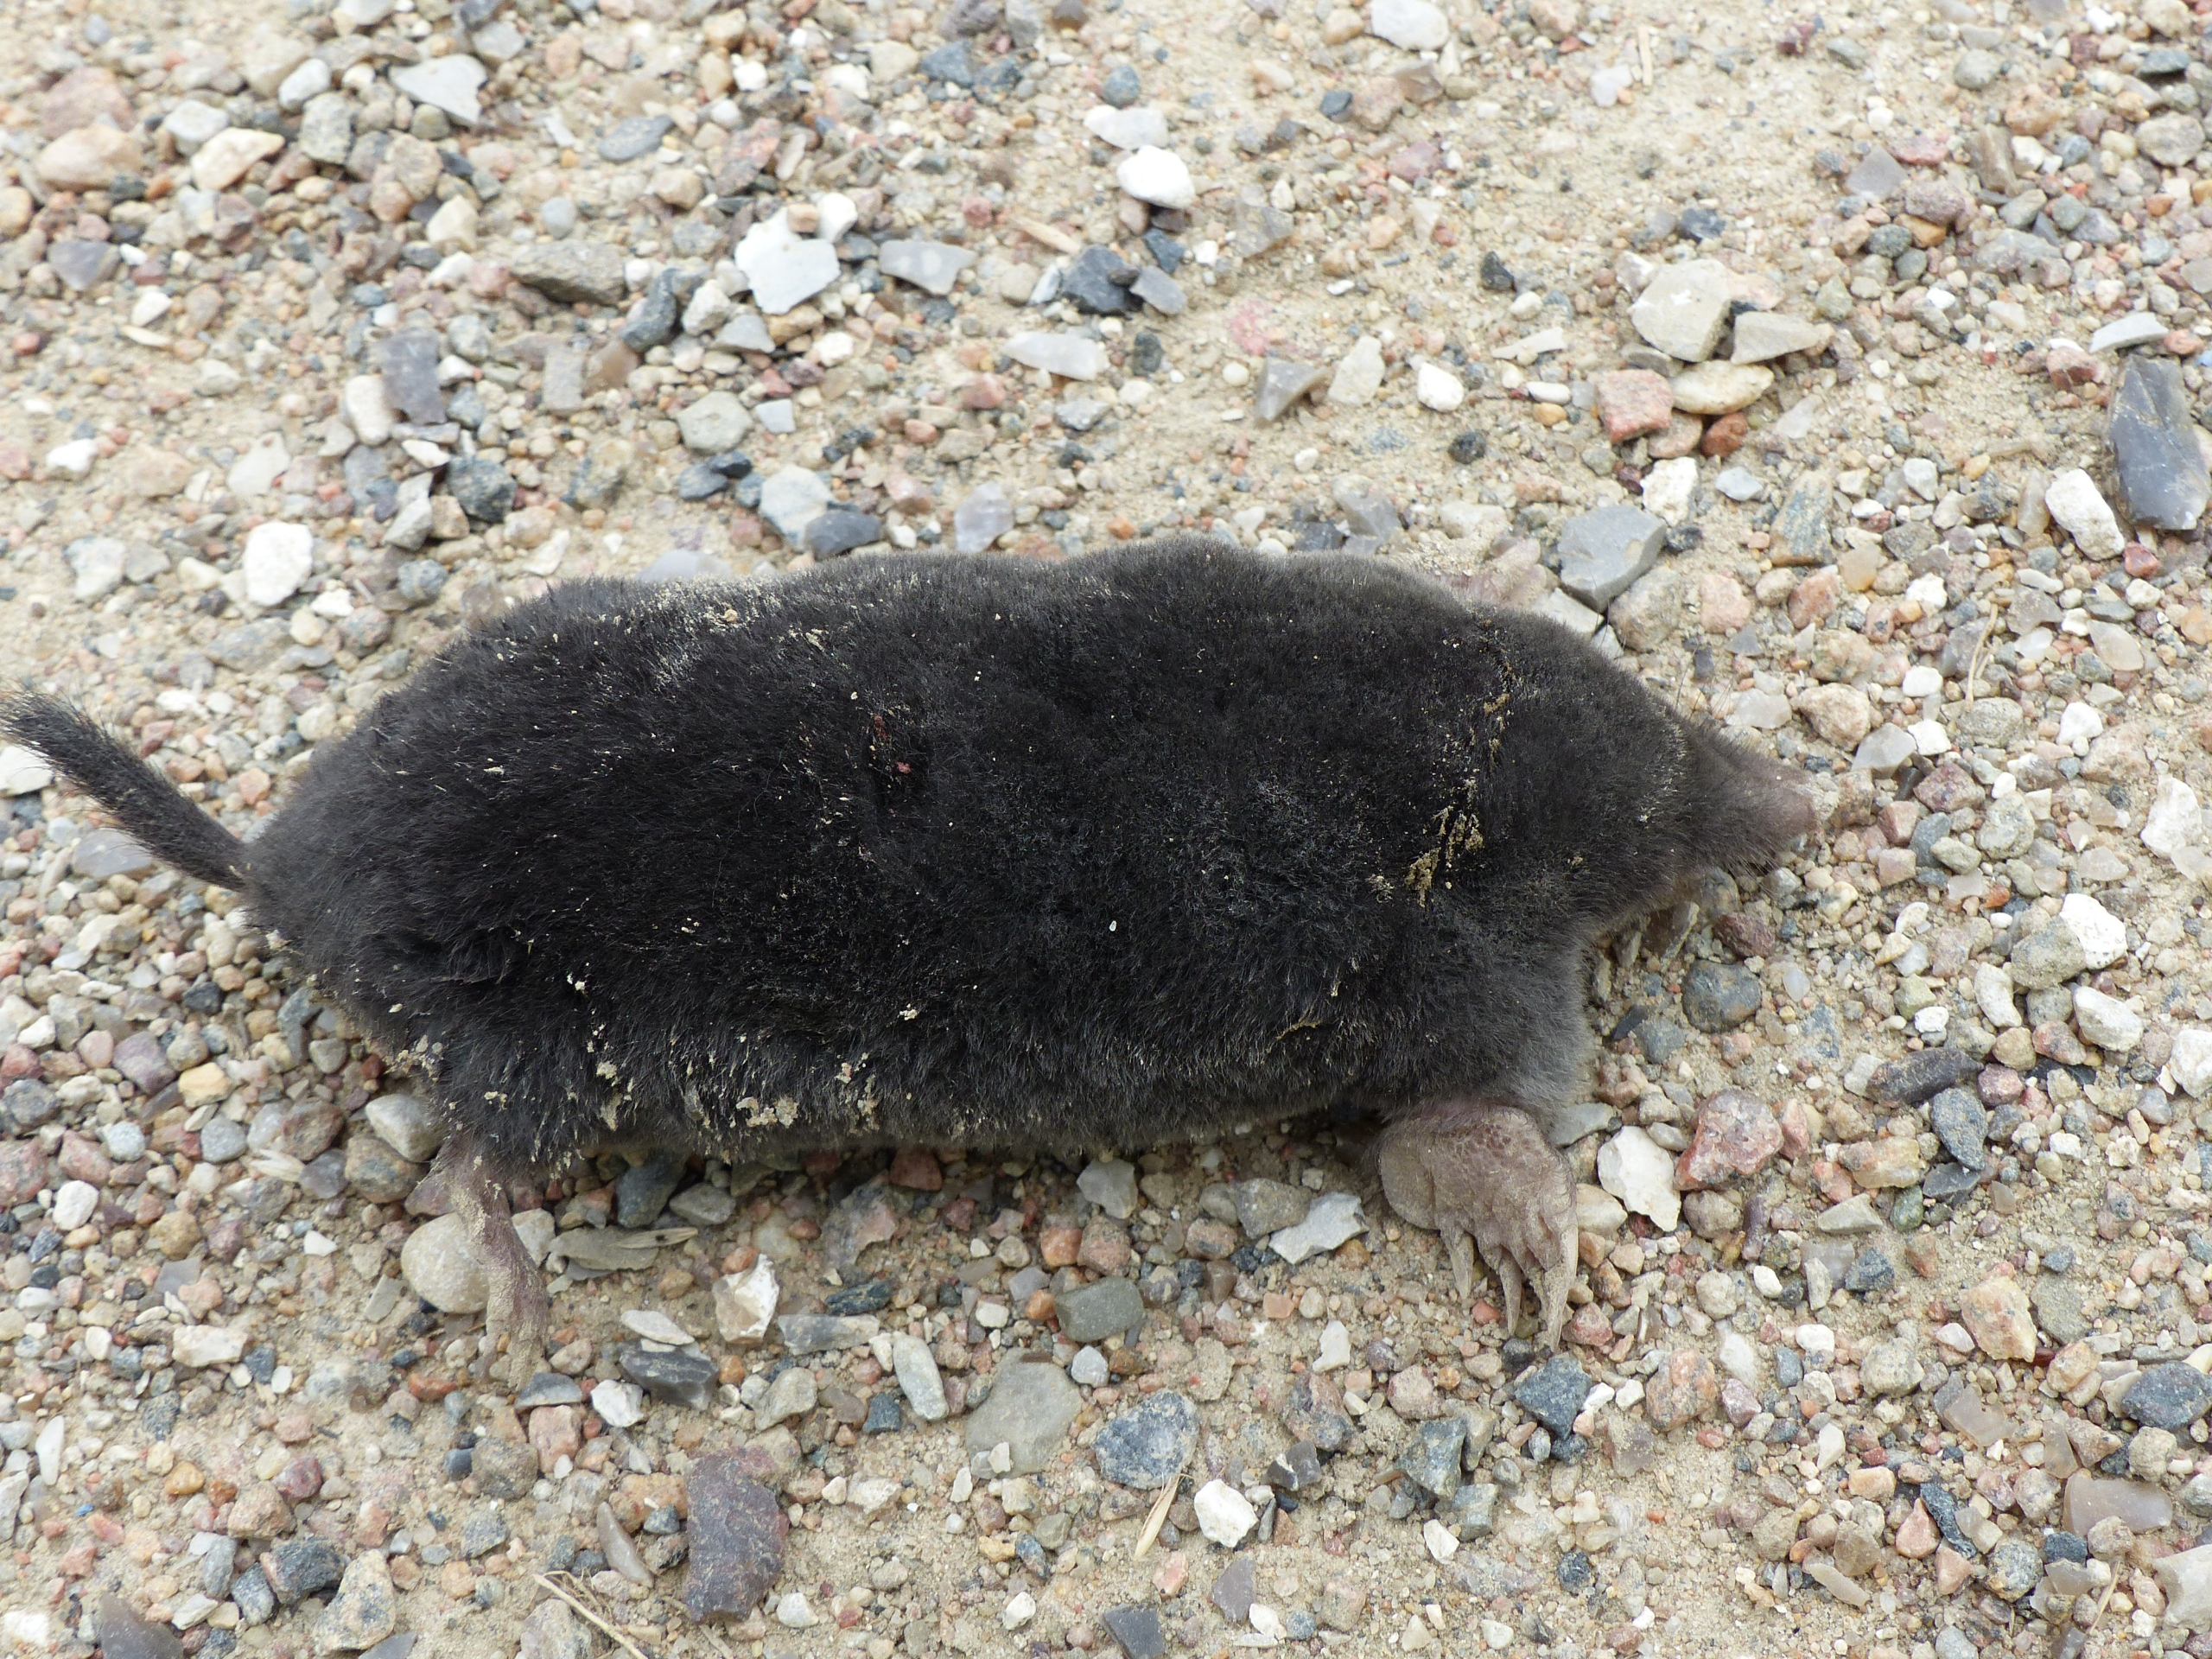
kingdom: Animalia
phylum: Chordata
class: Mammalia
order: Soricomorpha
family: Talpidae
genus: Talpa
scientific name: Talpa europaea
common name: Muldvarp
